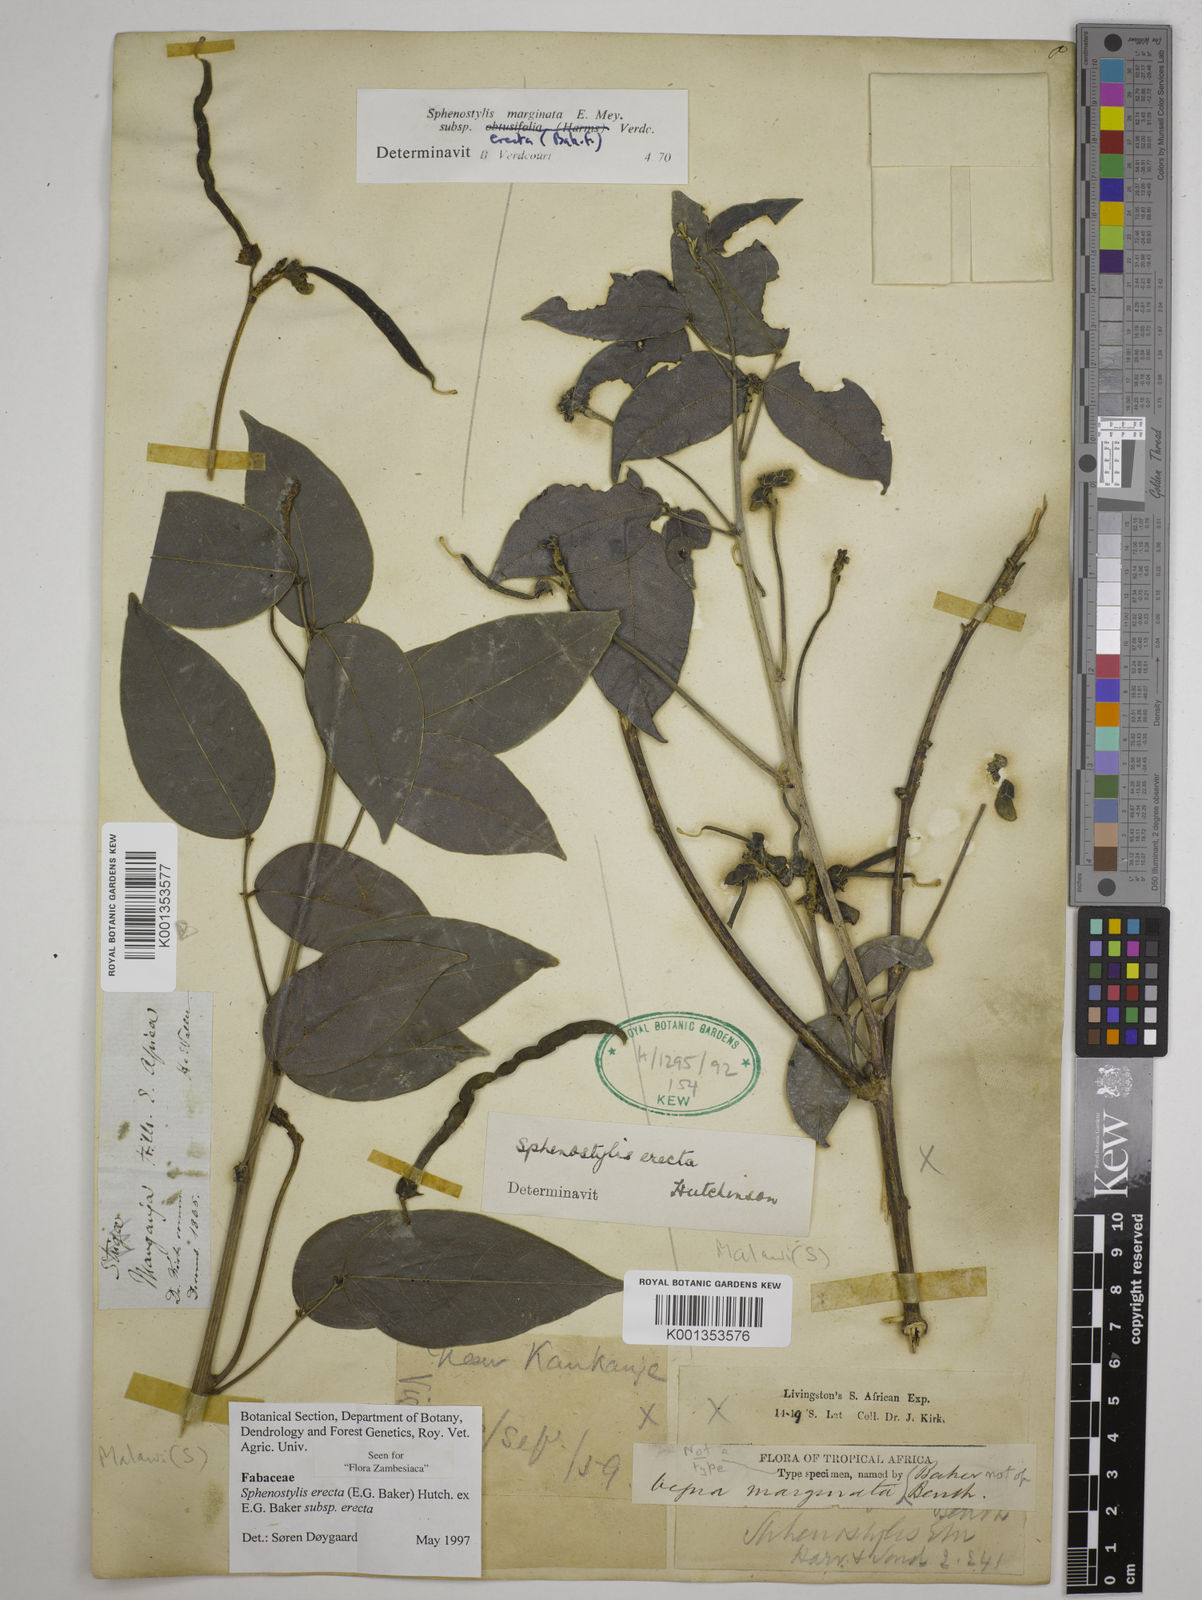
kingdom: Plantae
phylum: Tracheophyta
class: Magnoliopsida
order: Fabales
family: Fabaceae
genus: Sphenostylis
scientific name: Sphenostylis erecta
